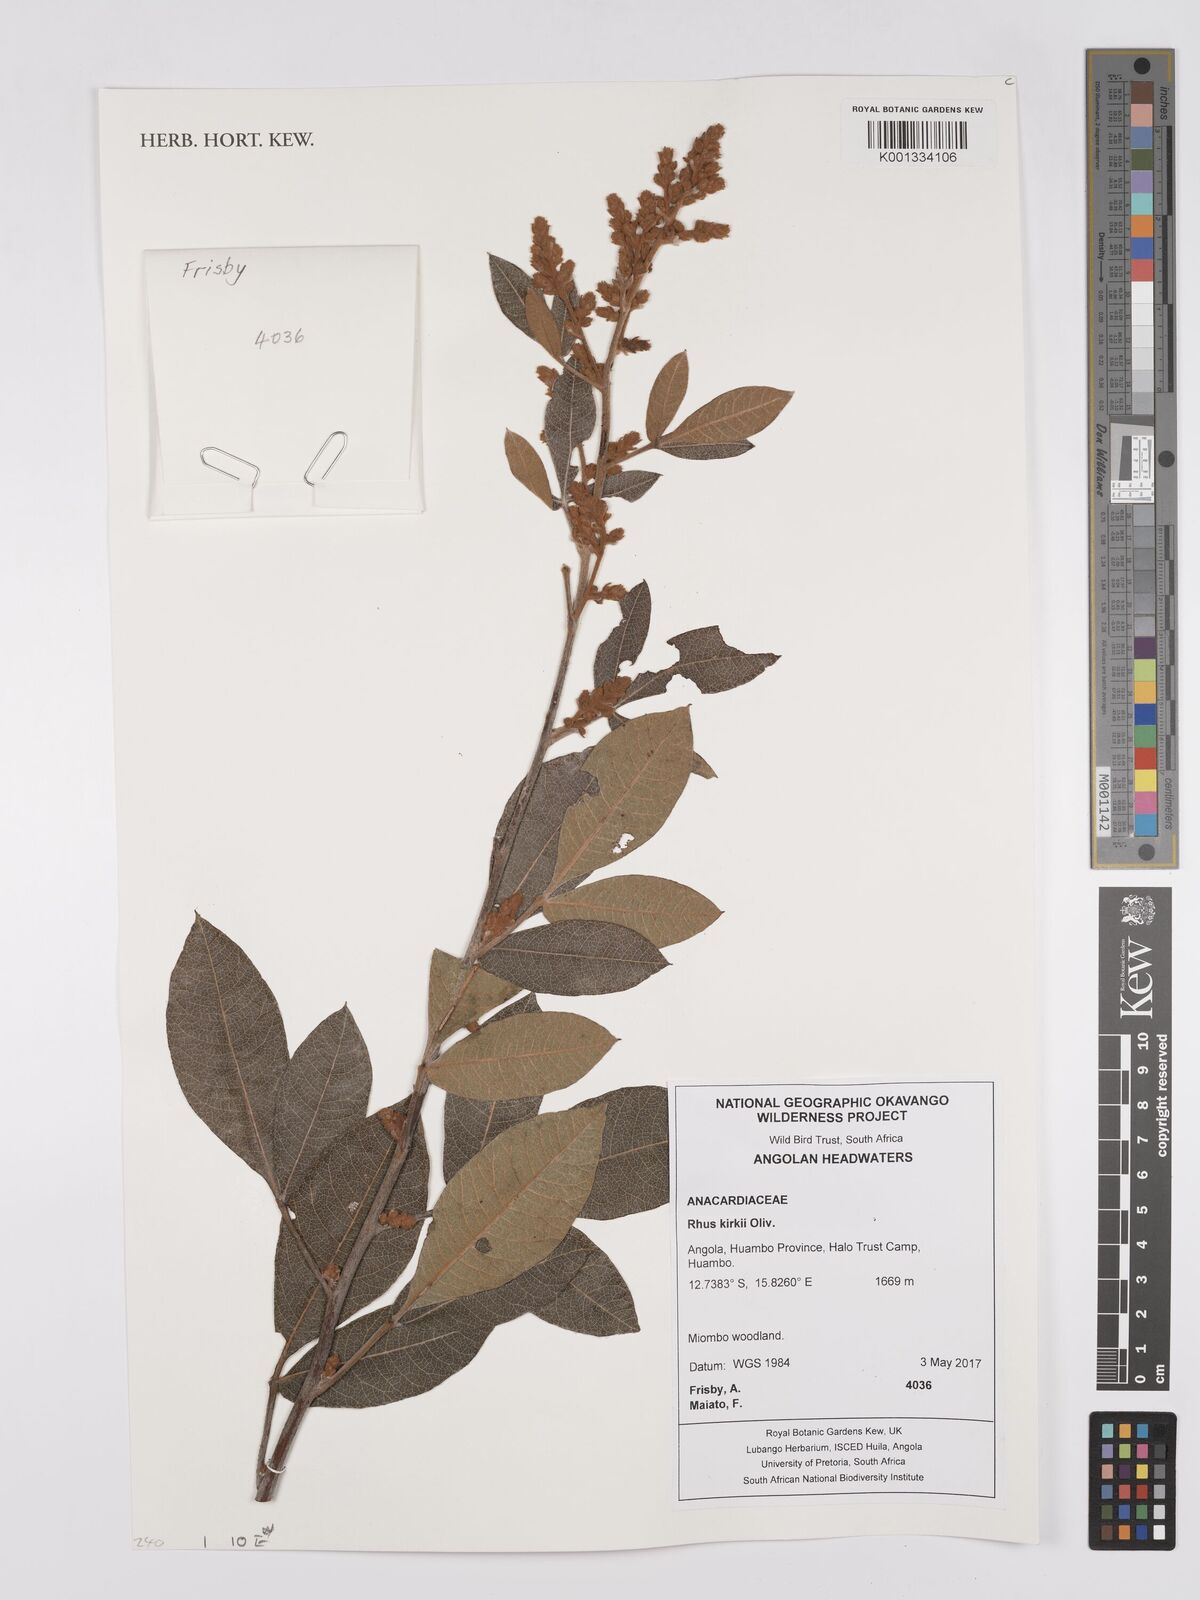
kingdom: Plantae
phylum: Tracheophyta
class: Magnoliopsida
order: Sapindales
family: Anacardiaceae
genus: Searsia
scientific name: Searsia kirkii
